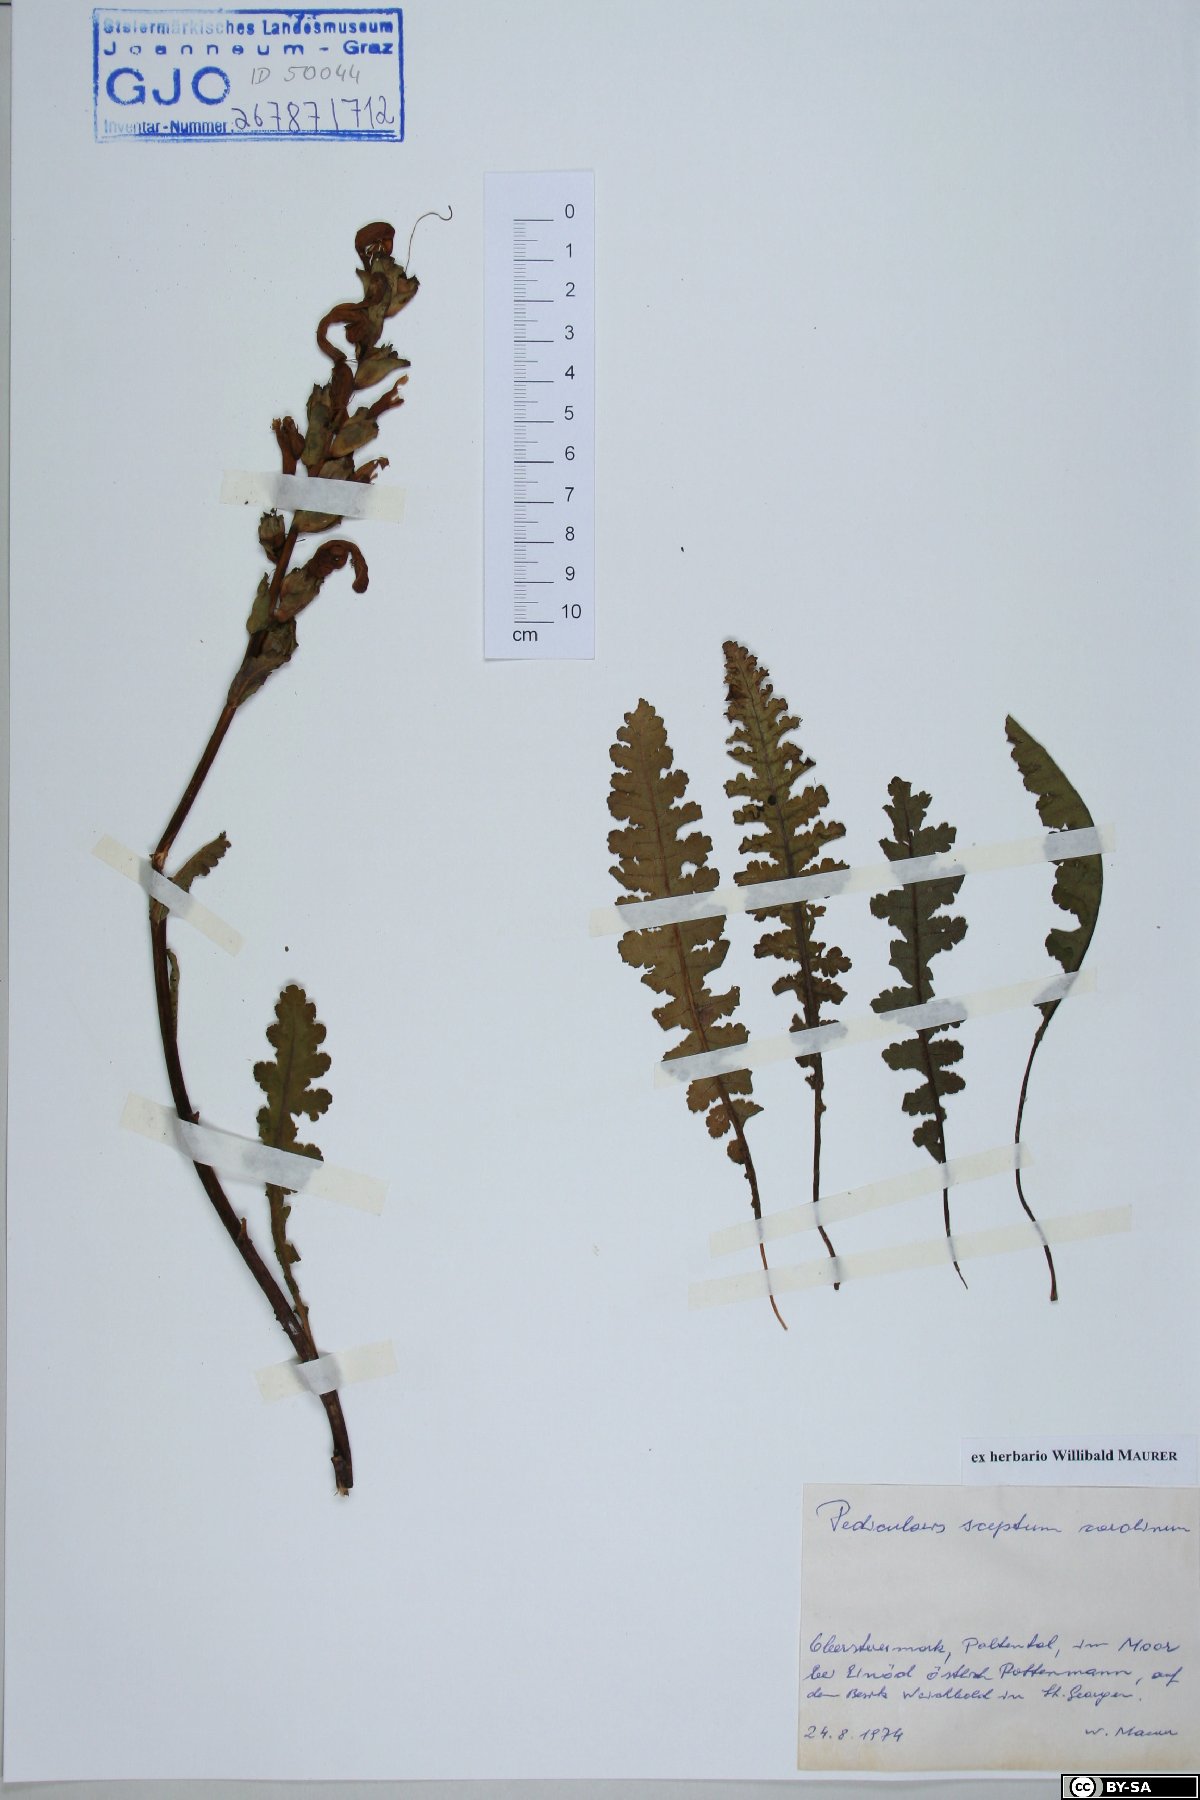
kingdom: Plantae
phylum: Tracheophyta
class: Magnoliopsida
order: Lamiales
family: Orobanchaceae
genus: Pedicularis
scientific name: Pedicularis sceptrum-carolinum
